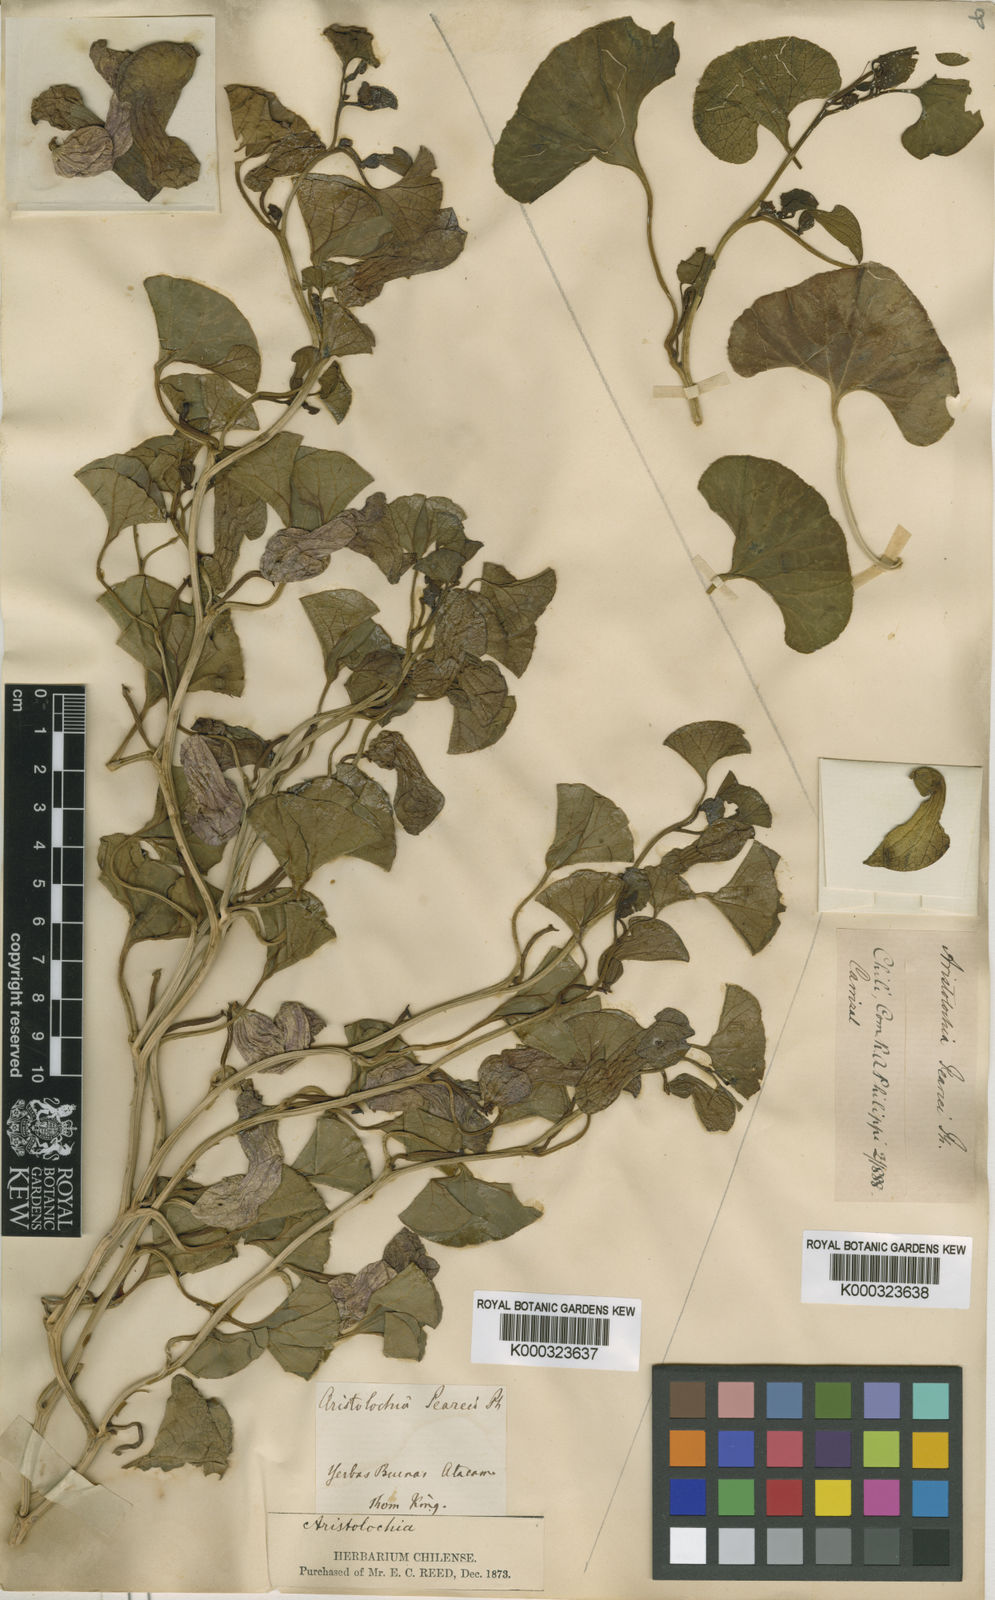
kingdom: Plantae
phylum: Tracheophyta
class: Magnoliopsida
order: Piperales
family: Aristolochiaceae
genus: Aristolochia
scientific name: Aristolochia bridgesii
